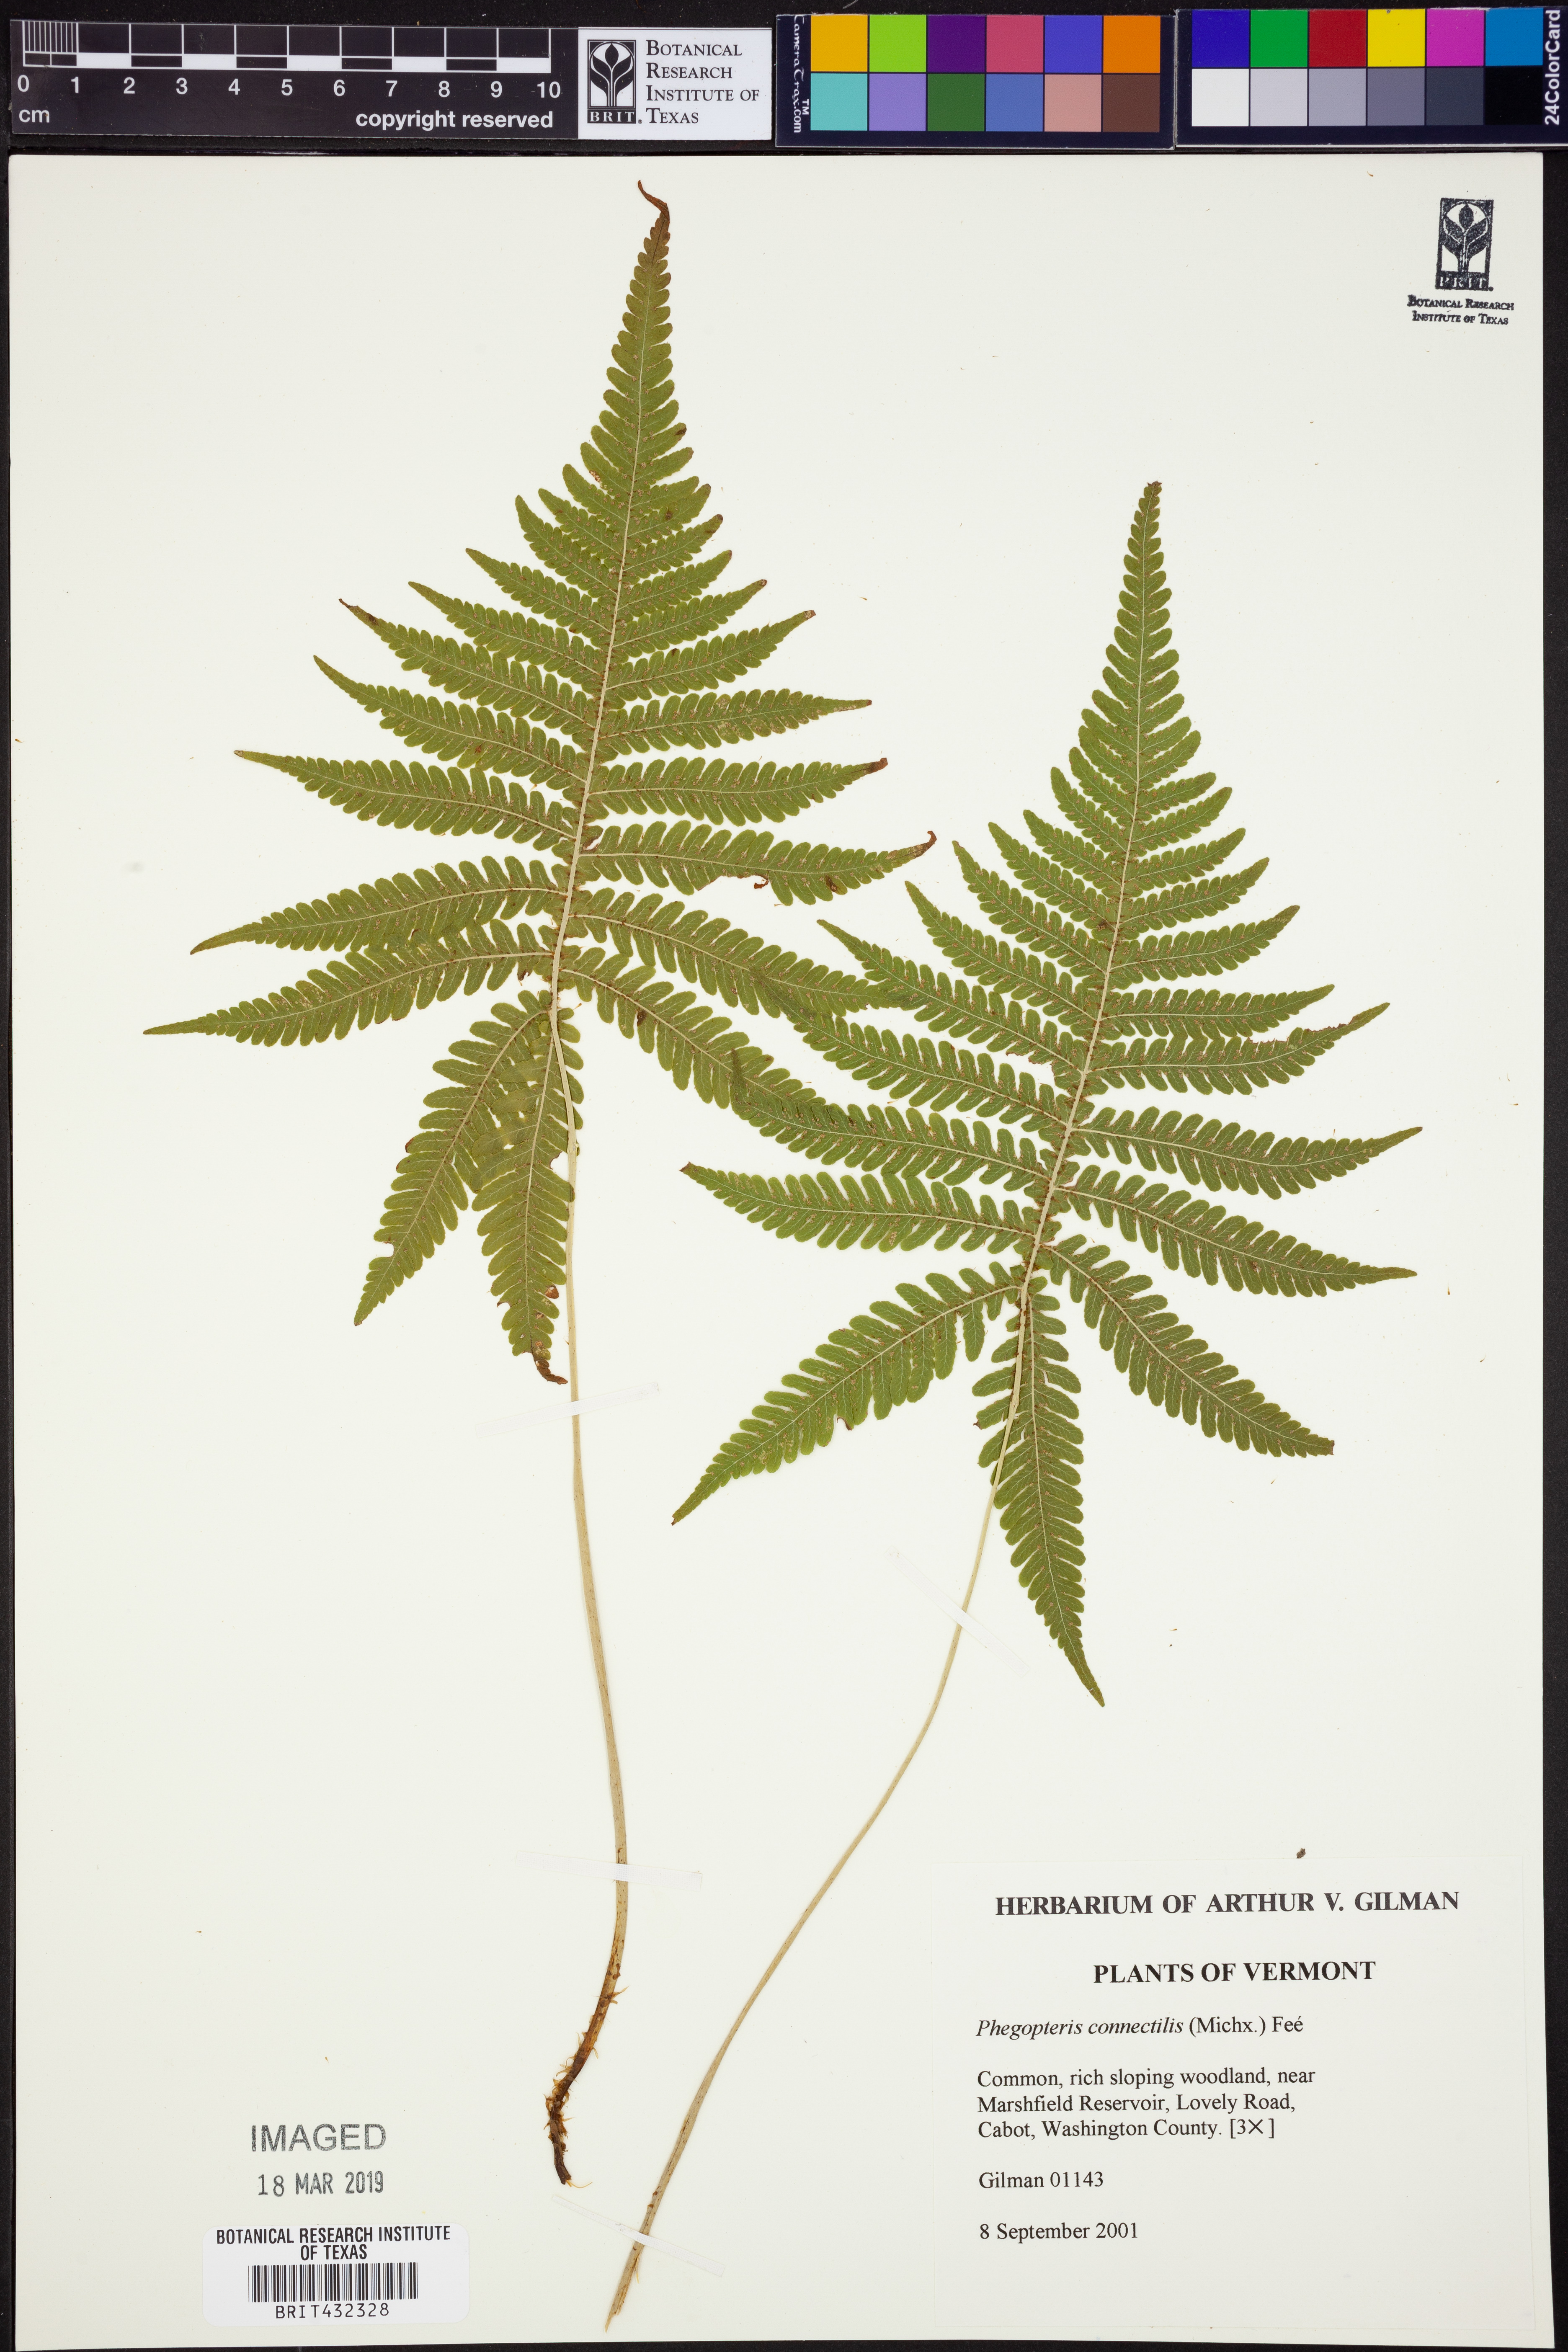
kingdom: Plantae
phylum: Tracheophyta
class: Polypodiopsida
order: Polypodiales
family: Thelypteridaceae
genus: Phegopteris
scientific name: Phegopteris connectilis
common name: Beech fern
